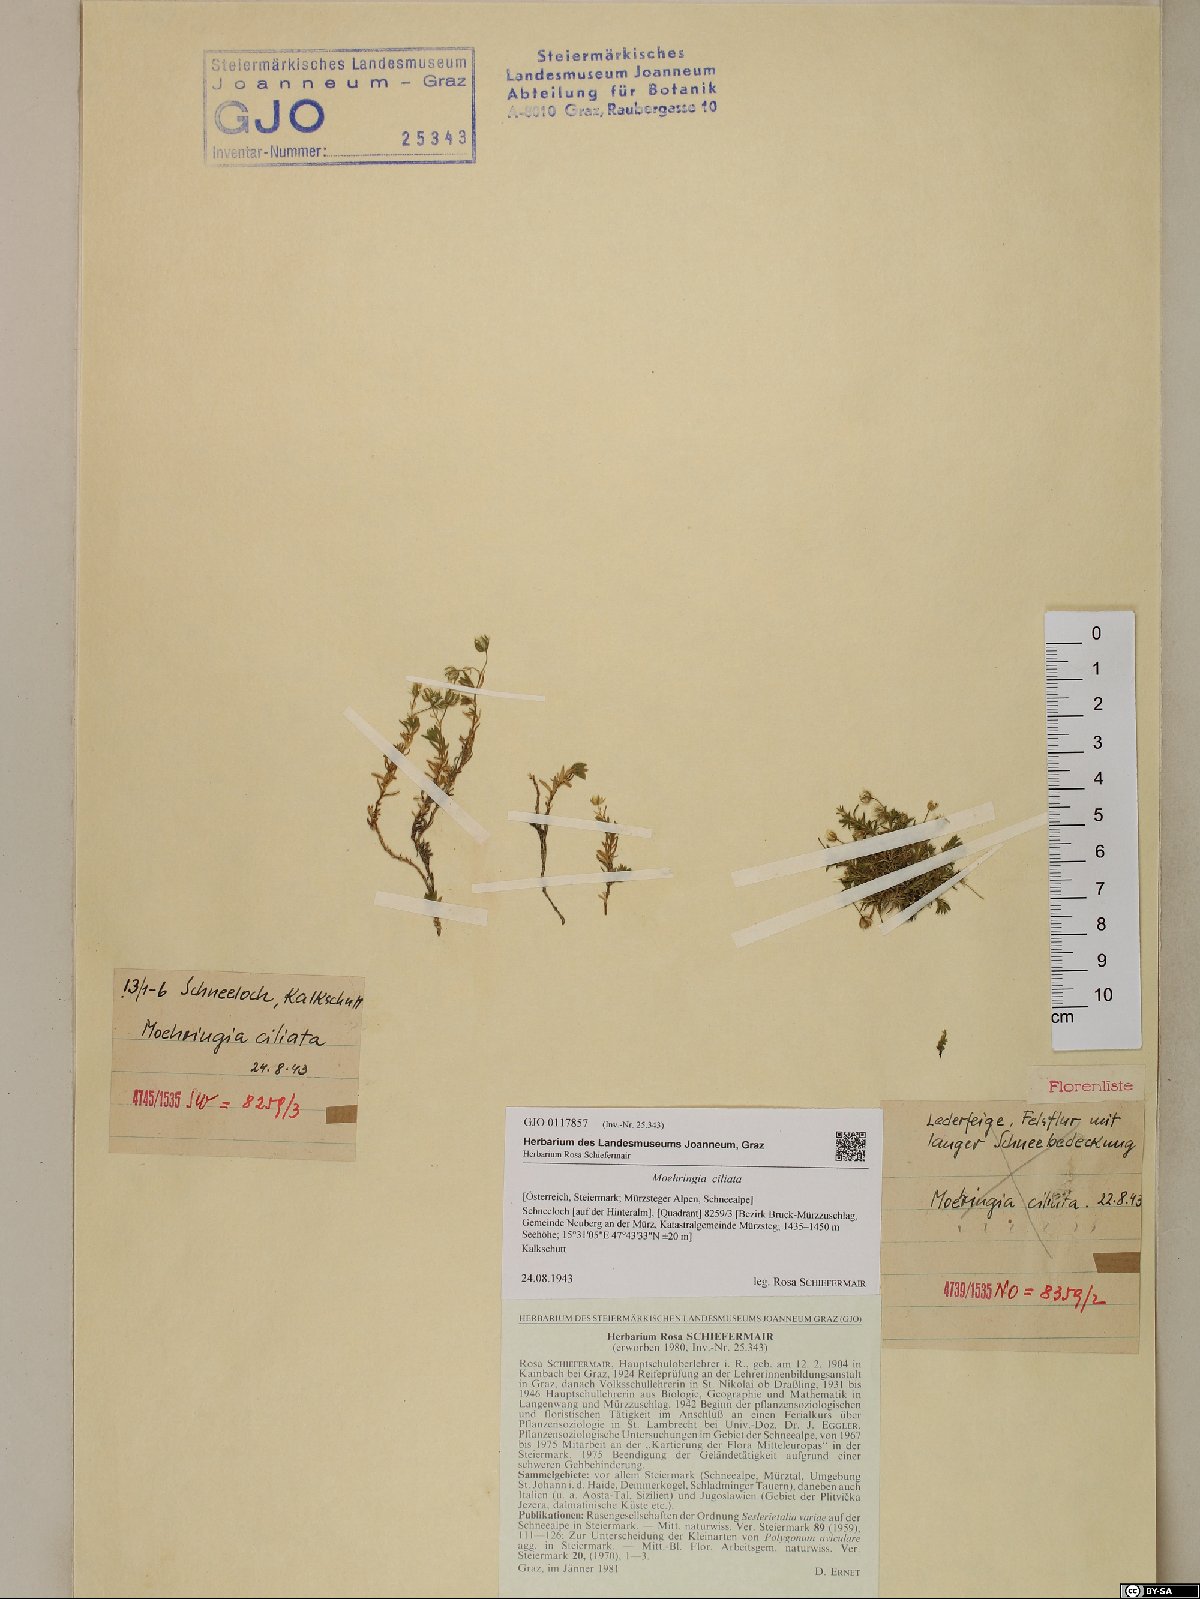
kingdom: Plantae
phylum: Tracheophyta
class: Magnoliopsida
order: Caryophyllales
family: Caryophyllaceae
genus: Moehringia
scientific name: Moehringia ciliata
